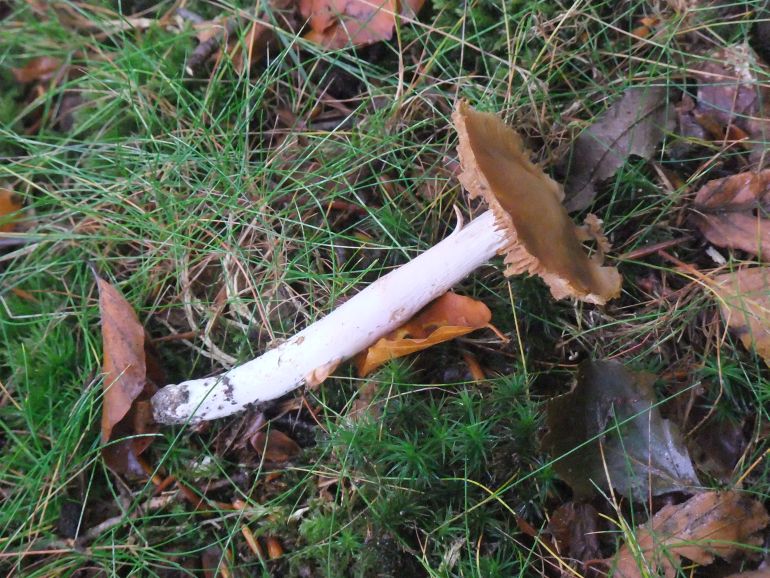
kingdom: Fungi
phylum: Basidiomycota
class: Agaricomycetes
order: Agaricales
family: Cortinariaceae
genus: Cortinarius
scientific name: Cortinarius elatior
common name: høj slørhat
